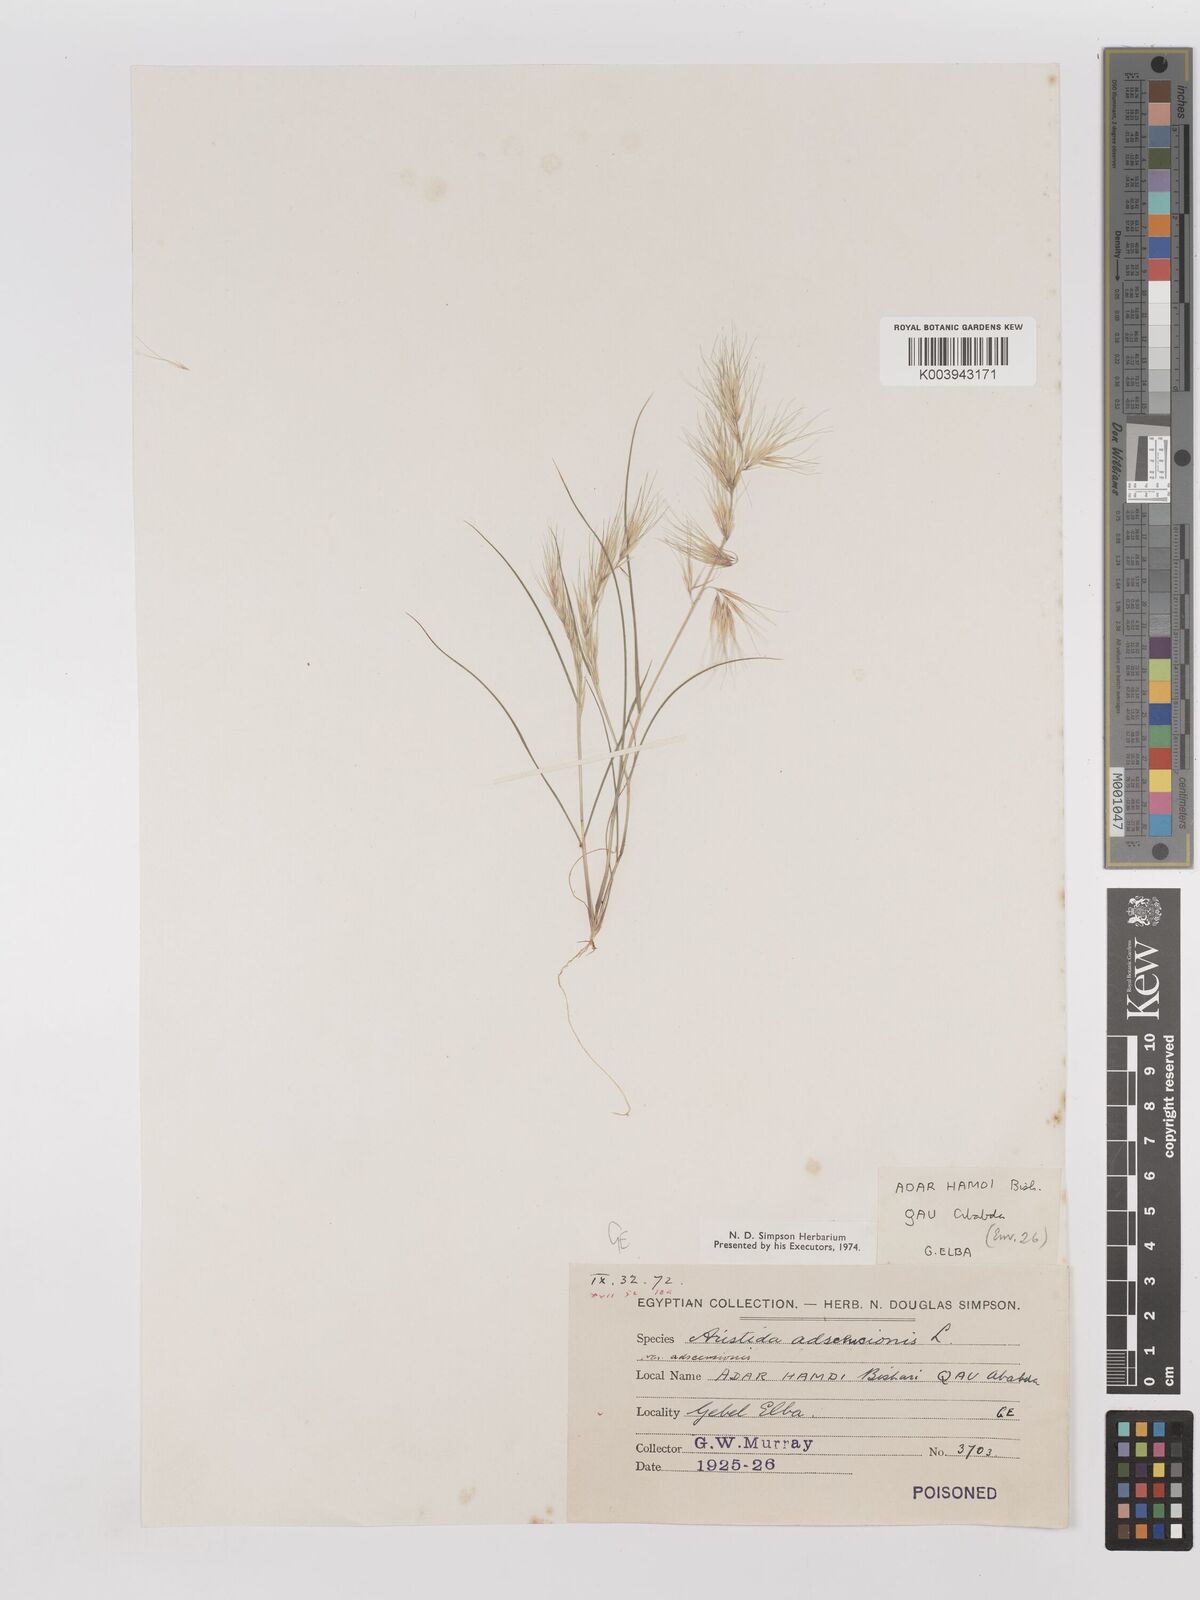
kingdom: Plantae
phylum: Tracheophyta
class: Liliopsida
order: Poales
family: Poaceae
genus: Aristida
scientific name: Aristida adscensionis
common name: Sixweeks threeawn
